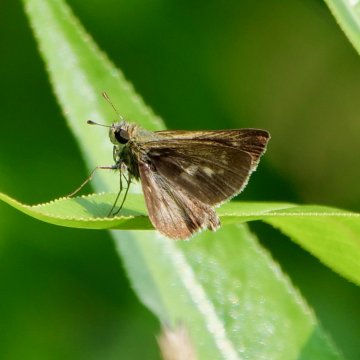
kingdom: Animalia
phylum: Arthropoda
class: Insecta
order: Lepidoptera
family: Hesperiidae
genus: Polites
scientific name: Polites egeremet
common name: Northern Broken-Dash
